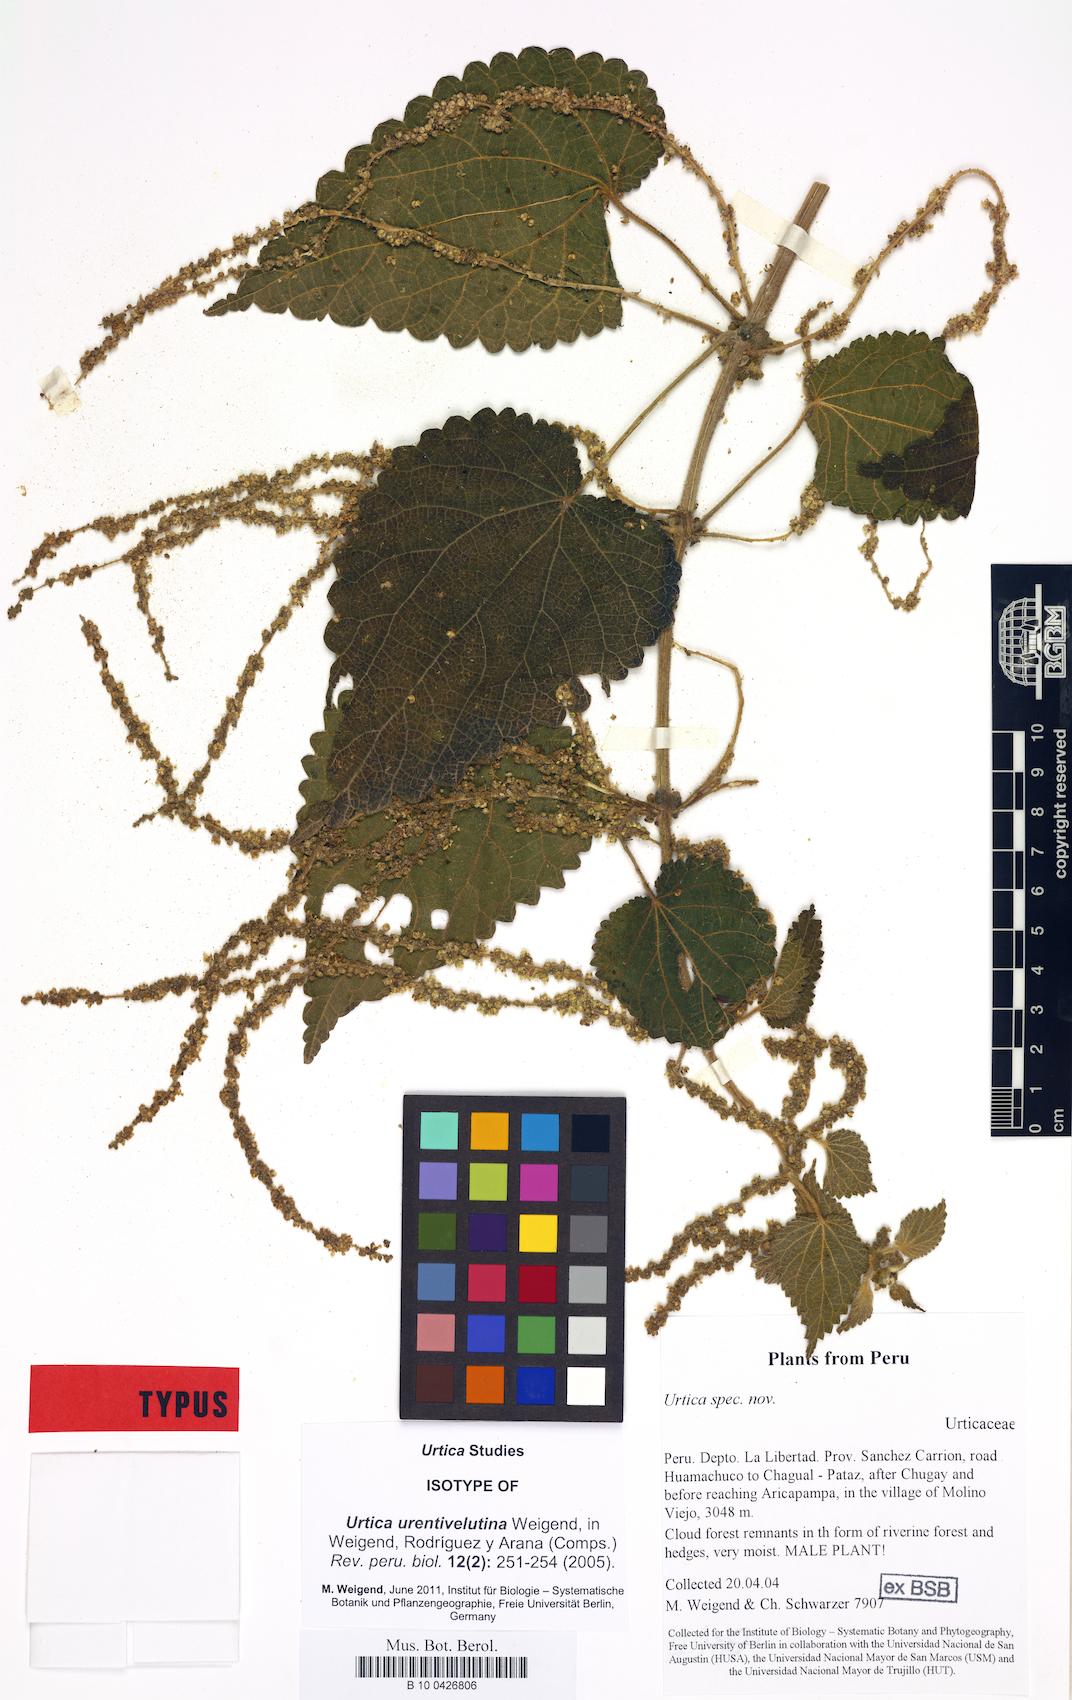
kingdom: Plantae
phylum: Tracheophyta
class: Magnoliopsida
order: Rosales
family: Urticaceae
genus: Urtica
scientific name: Urtica urentivelutina
